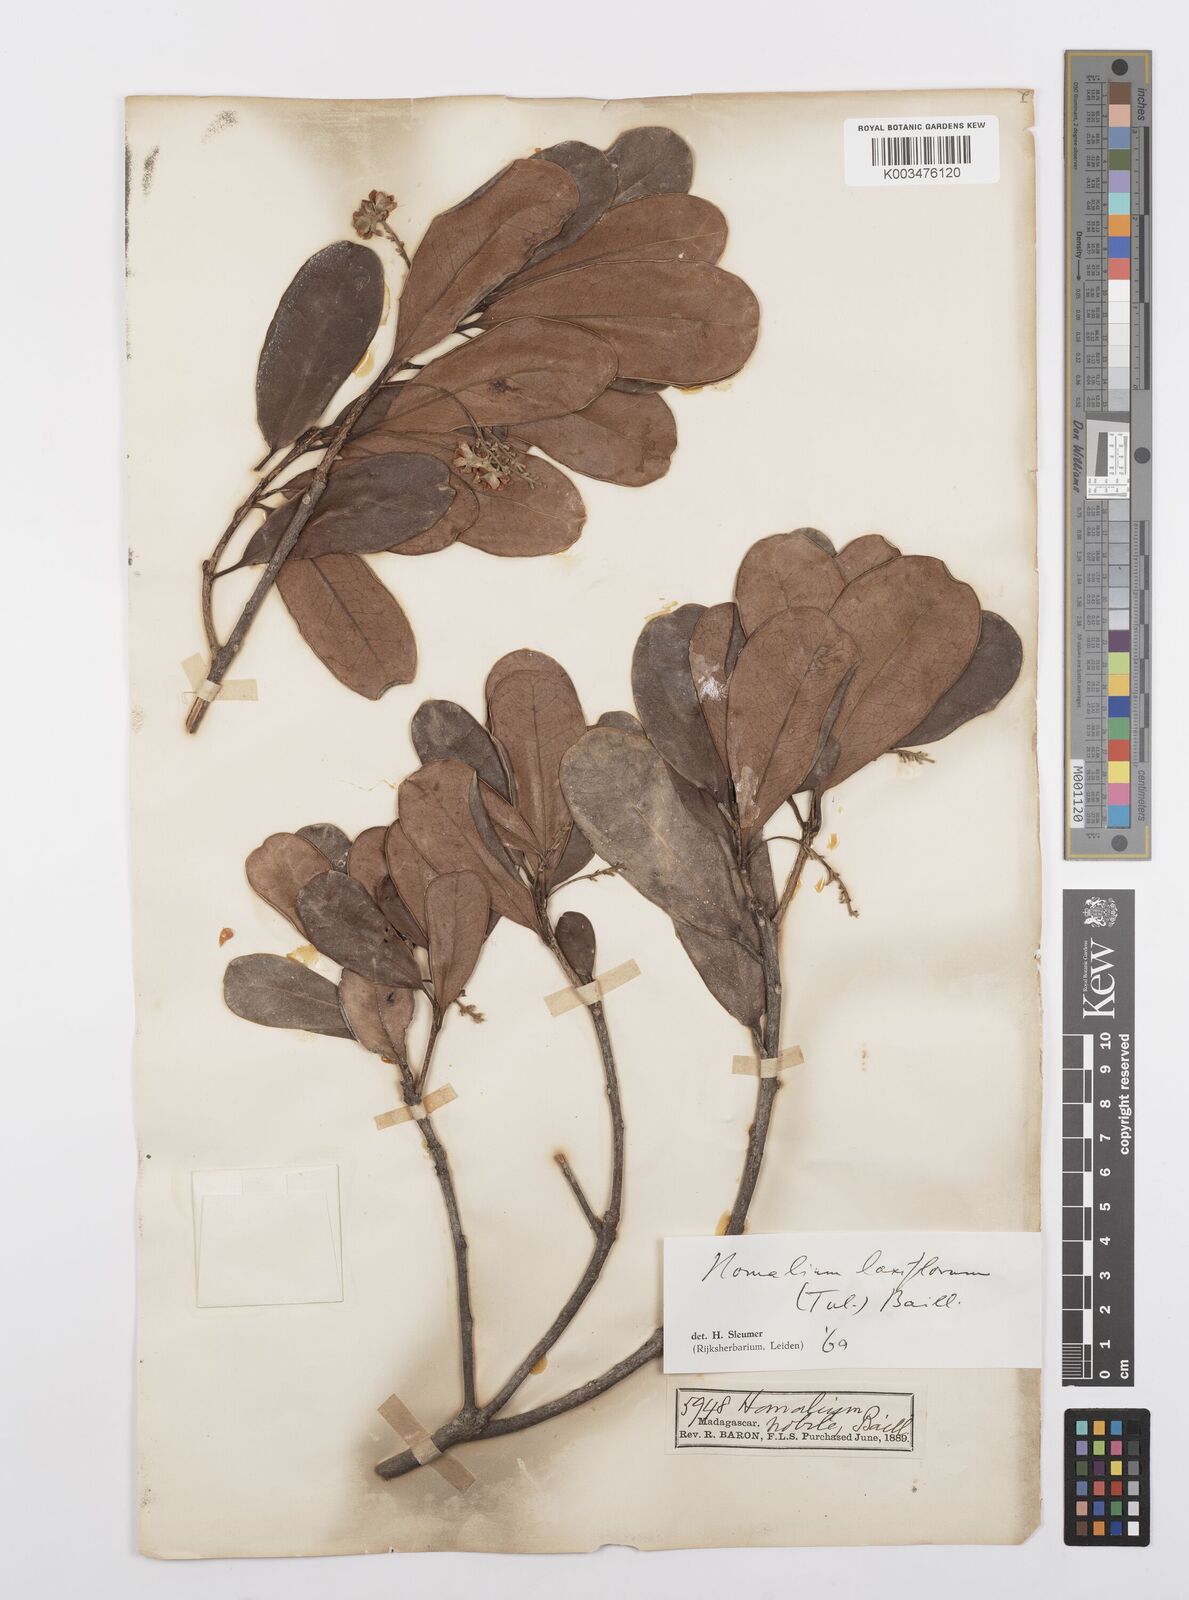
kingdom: Plantae
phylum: Tracheophyta
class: Magnoliopsida
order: Malpighiales
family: Salicaceae
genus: Homalium
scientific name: Homalium laxiflorum
